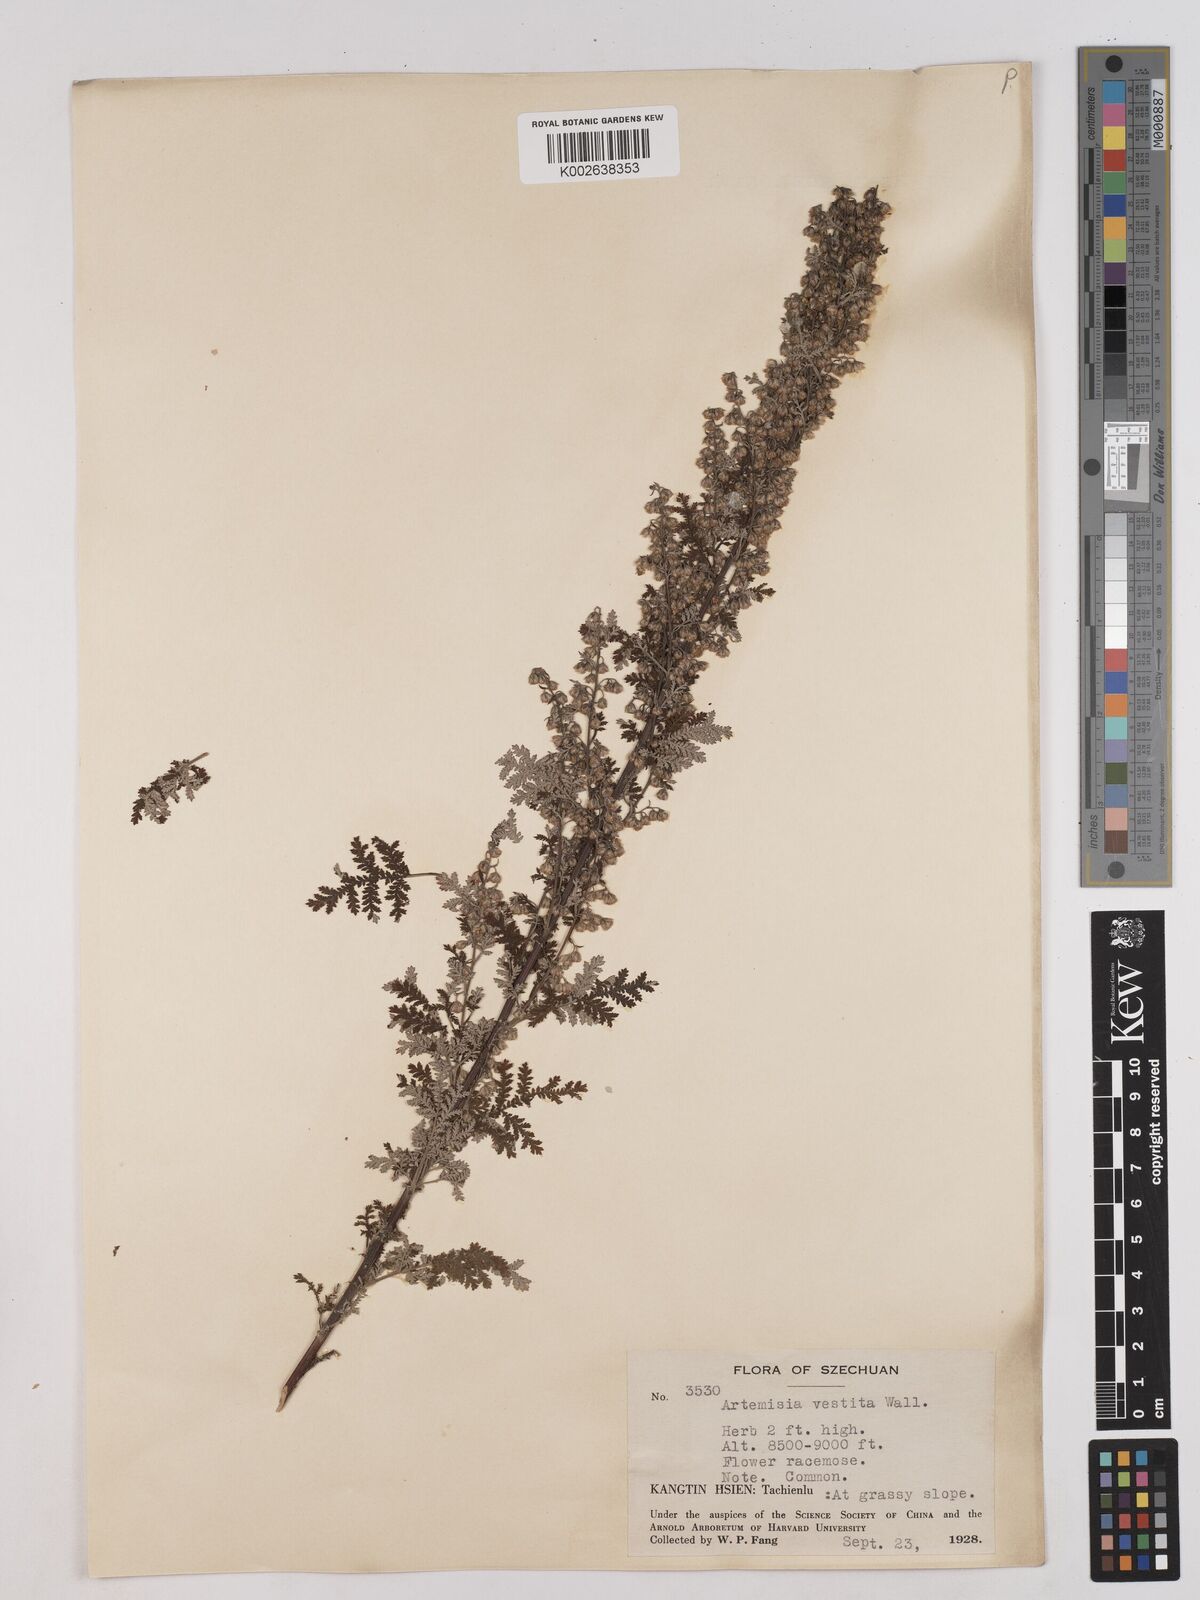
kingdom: Plantae
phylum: Tracheophyta
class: Magnoliopsida
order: Asterales
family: Asteraceae
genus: Artemisia
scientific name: Artemisia gmelinii
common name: Gmelin's wormwood
